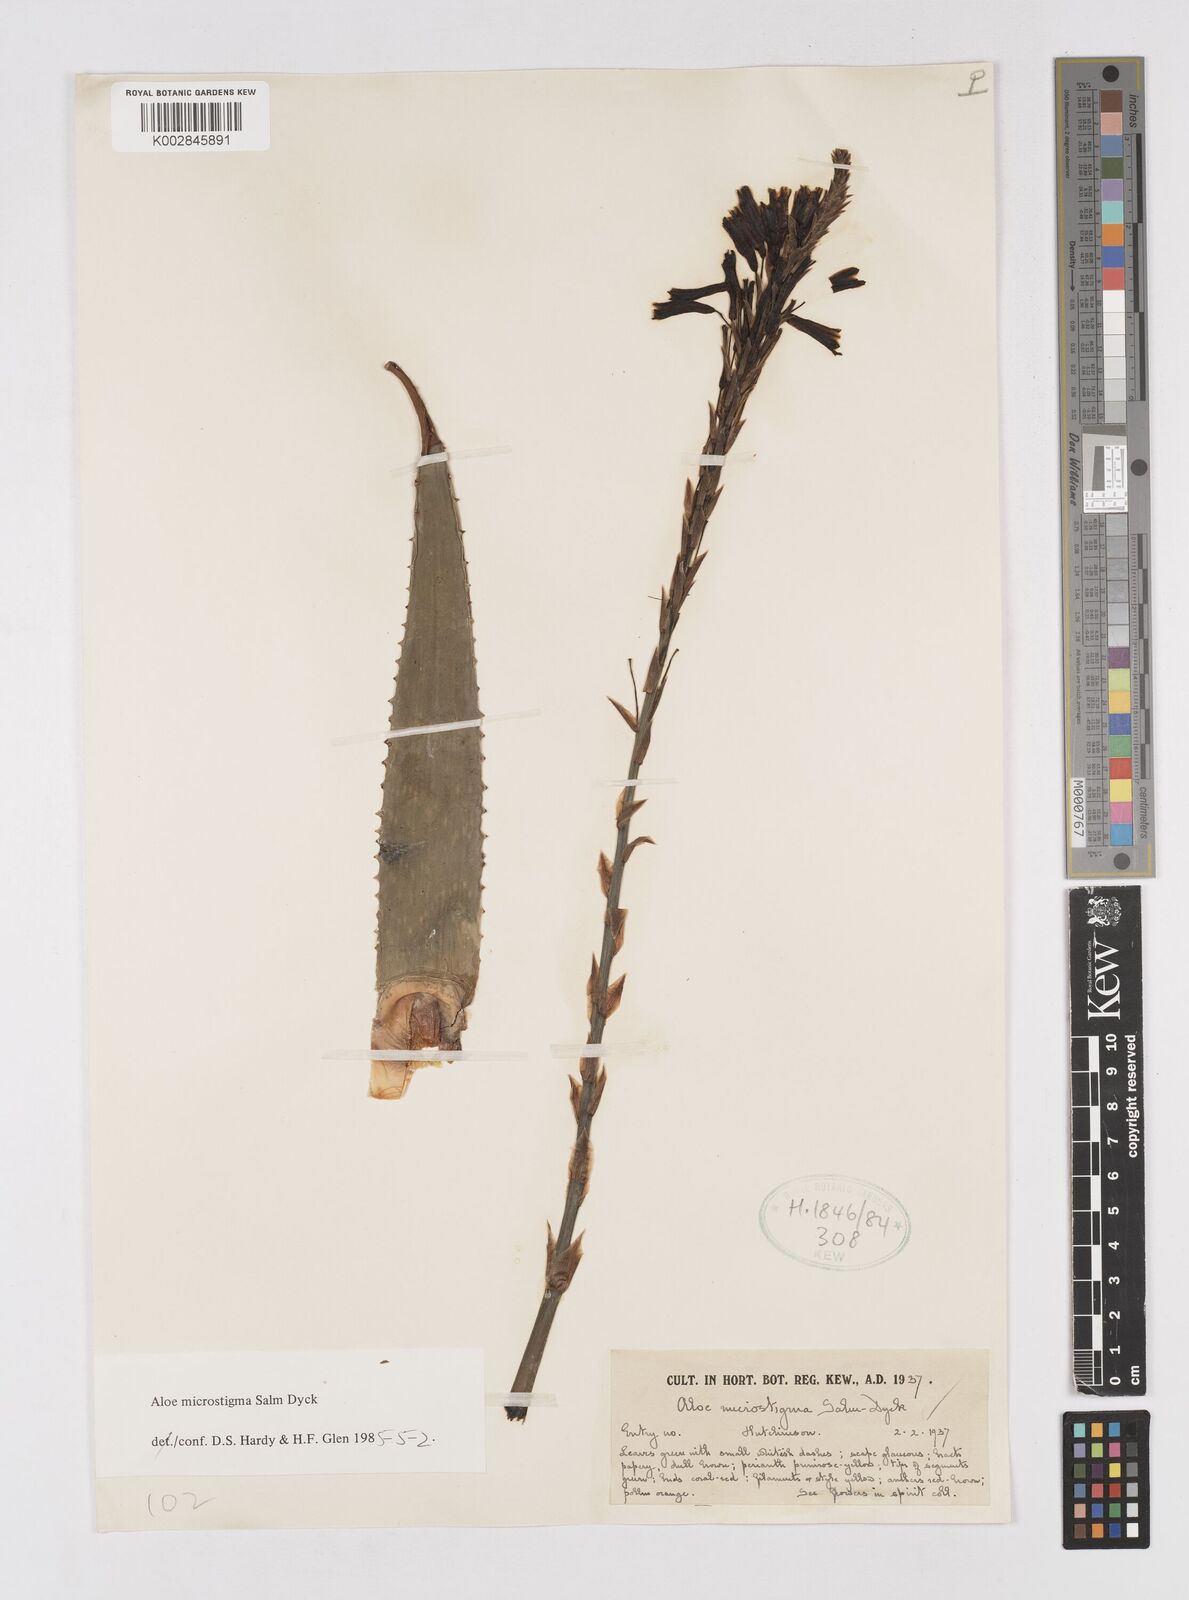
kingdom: Plantae
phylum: Tracheophyta
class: Liliopsida
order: Asparagales
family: Asphodelaceae
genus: Aloe
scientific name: Aloe microstigma
